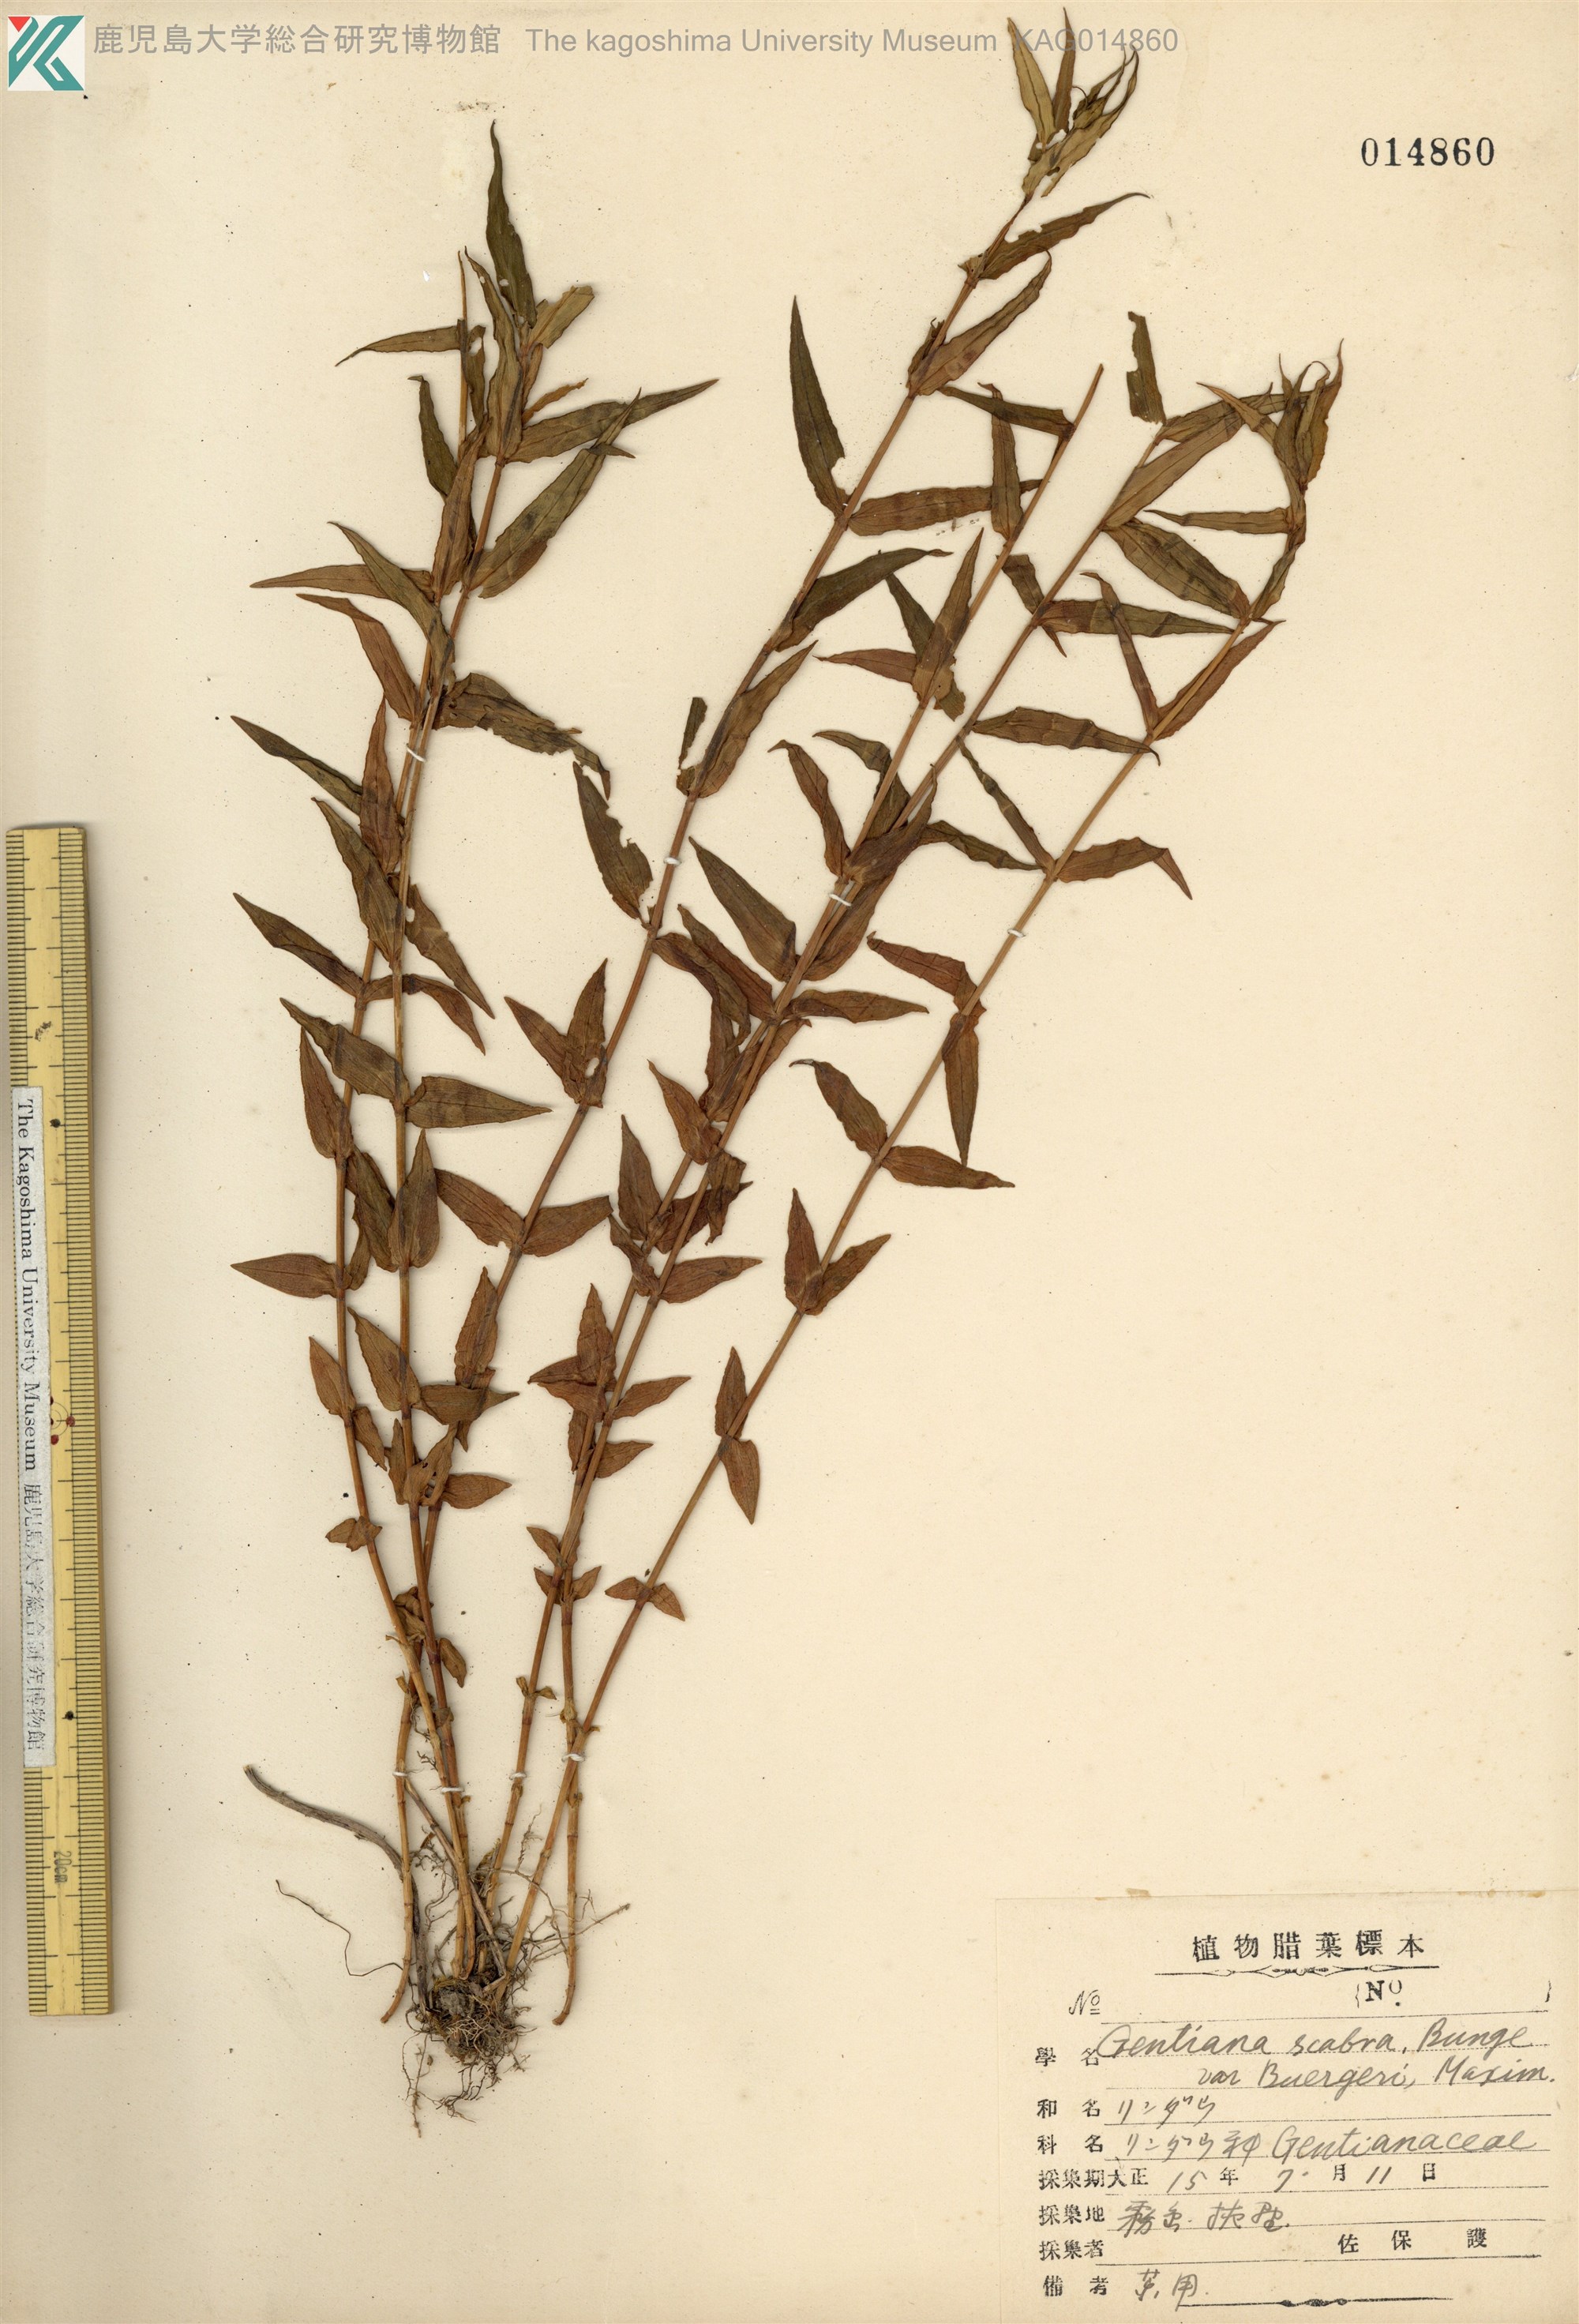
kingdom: Plantae
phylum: Tracheophyta
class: Magnoliopsida
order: Gentianales
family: Gentianaceae
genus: Gentiana
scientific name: Gentiana scabra
